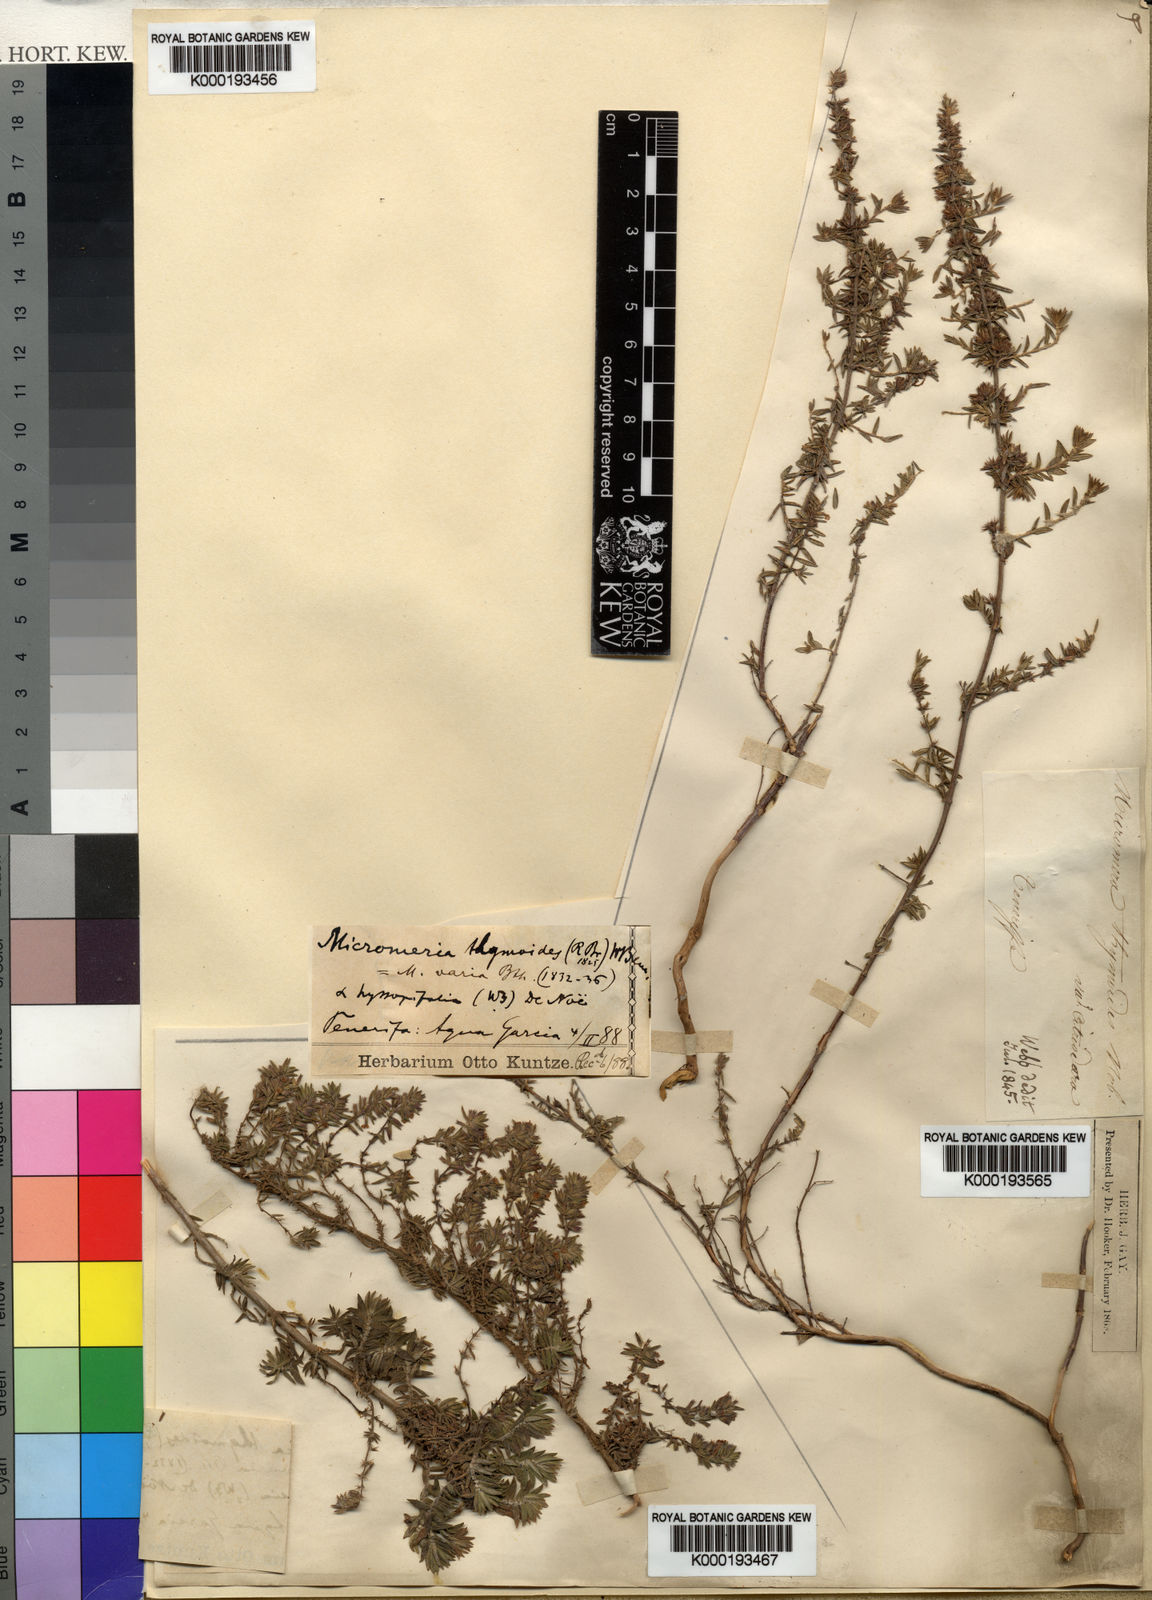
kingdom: Plantae
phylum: Tracheophyta
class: Magnoliopsida
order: Lamiales
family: Lamiaceae
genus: Micromeria
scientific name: Micromeria maderensis
